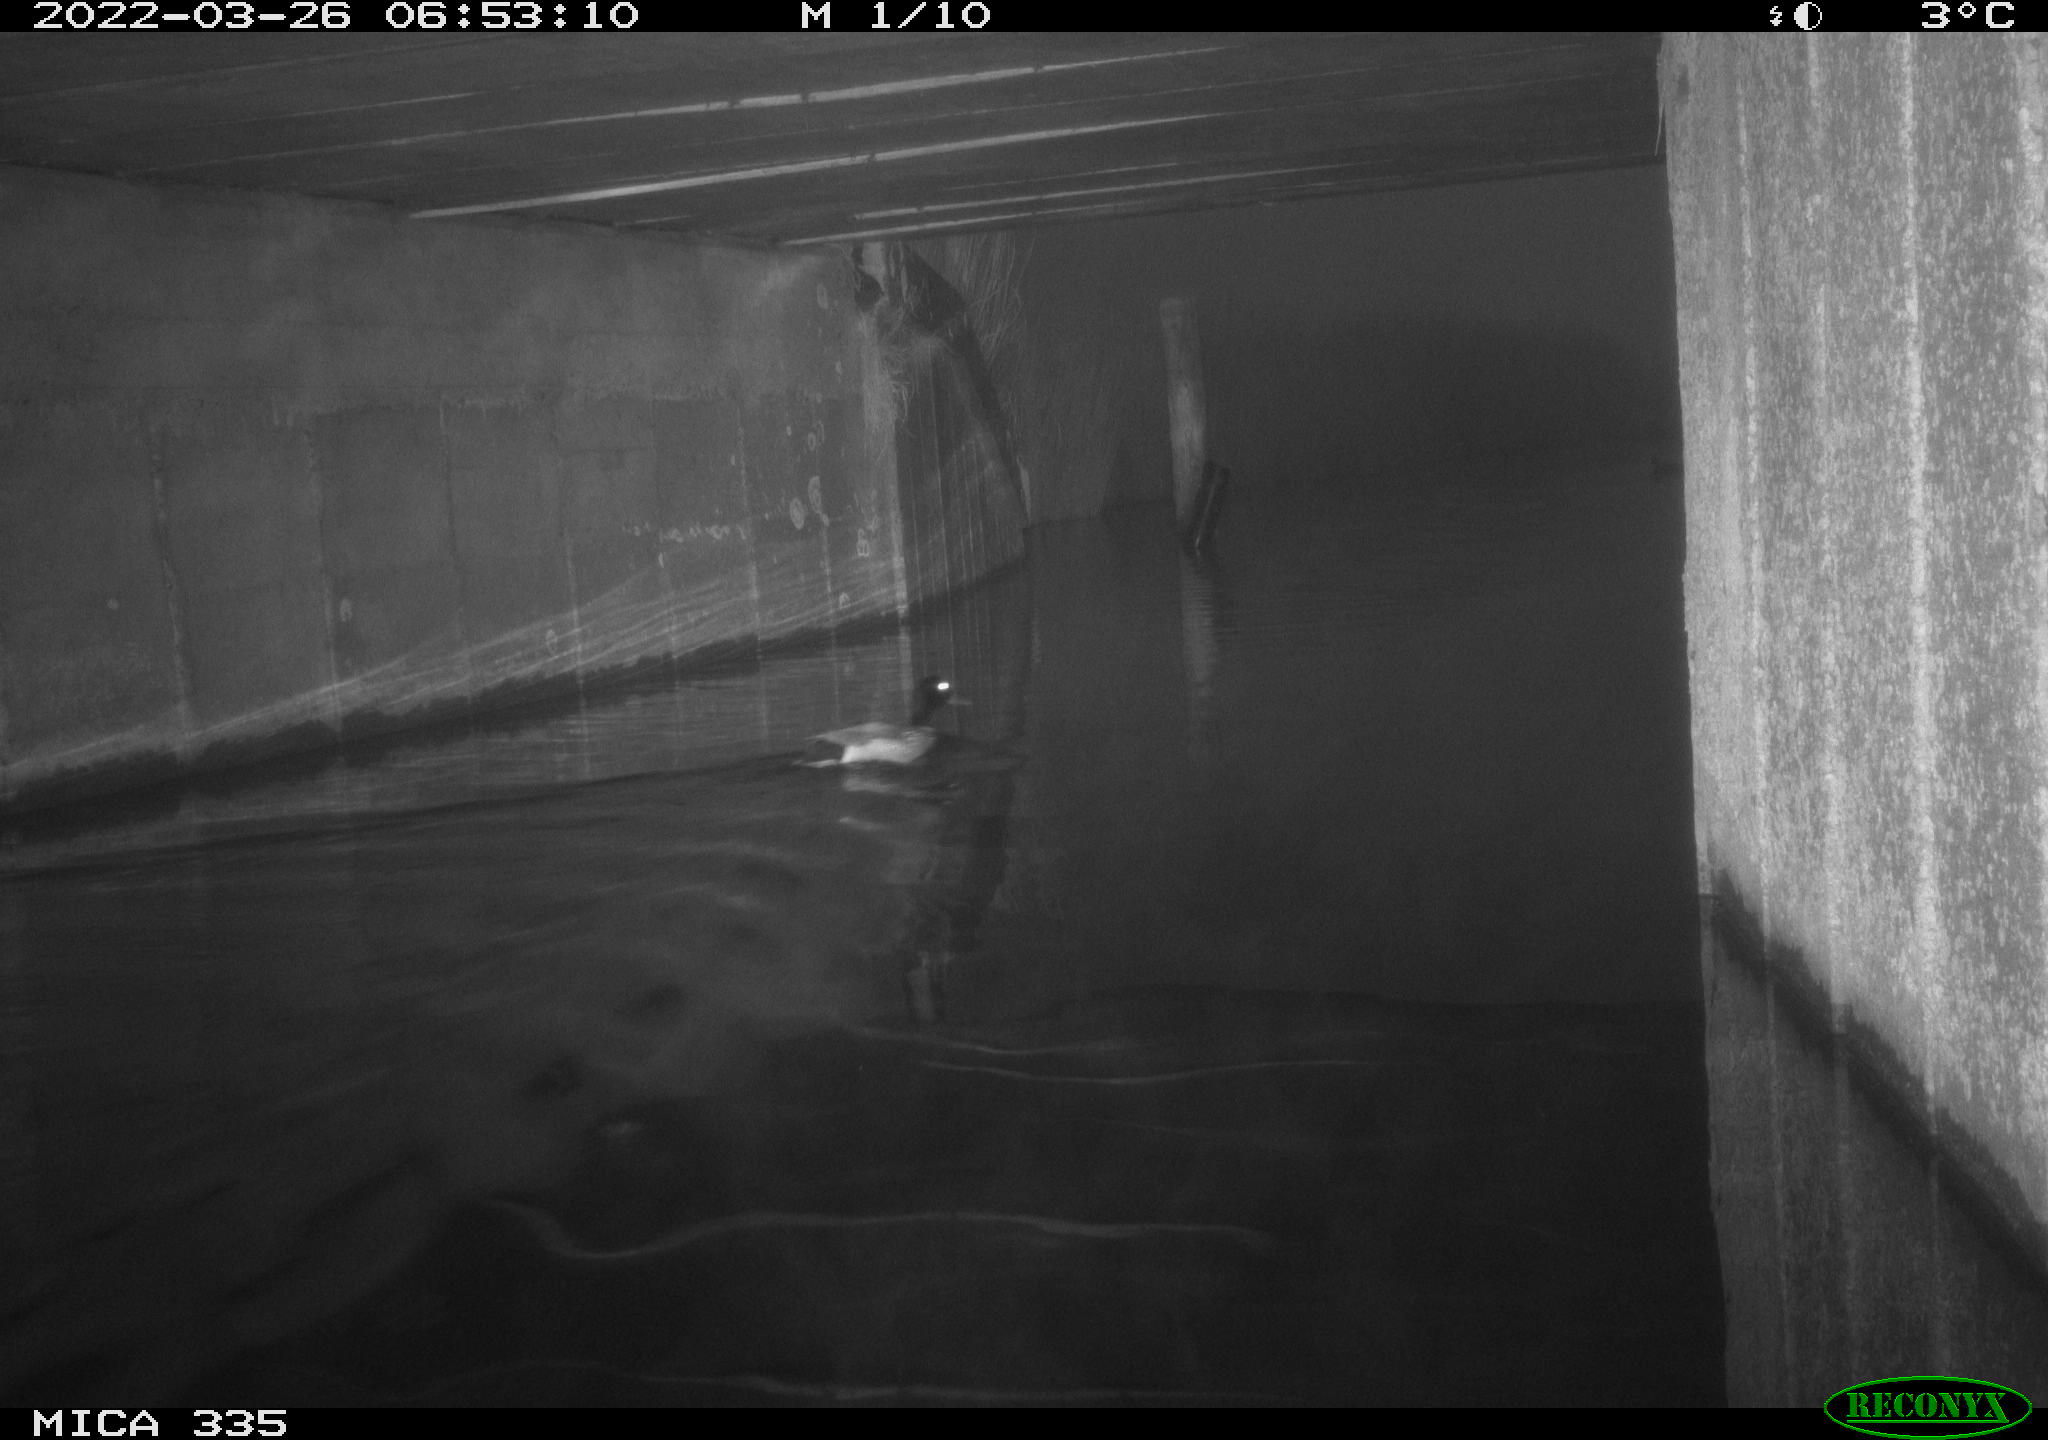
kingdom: Animalia
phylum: Chordata
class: Aves
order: Anseriformes
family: Anatidae
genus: Anas
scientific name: Anas platyrhynchos
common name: Mallard
